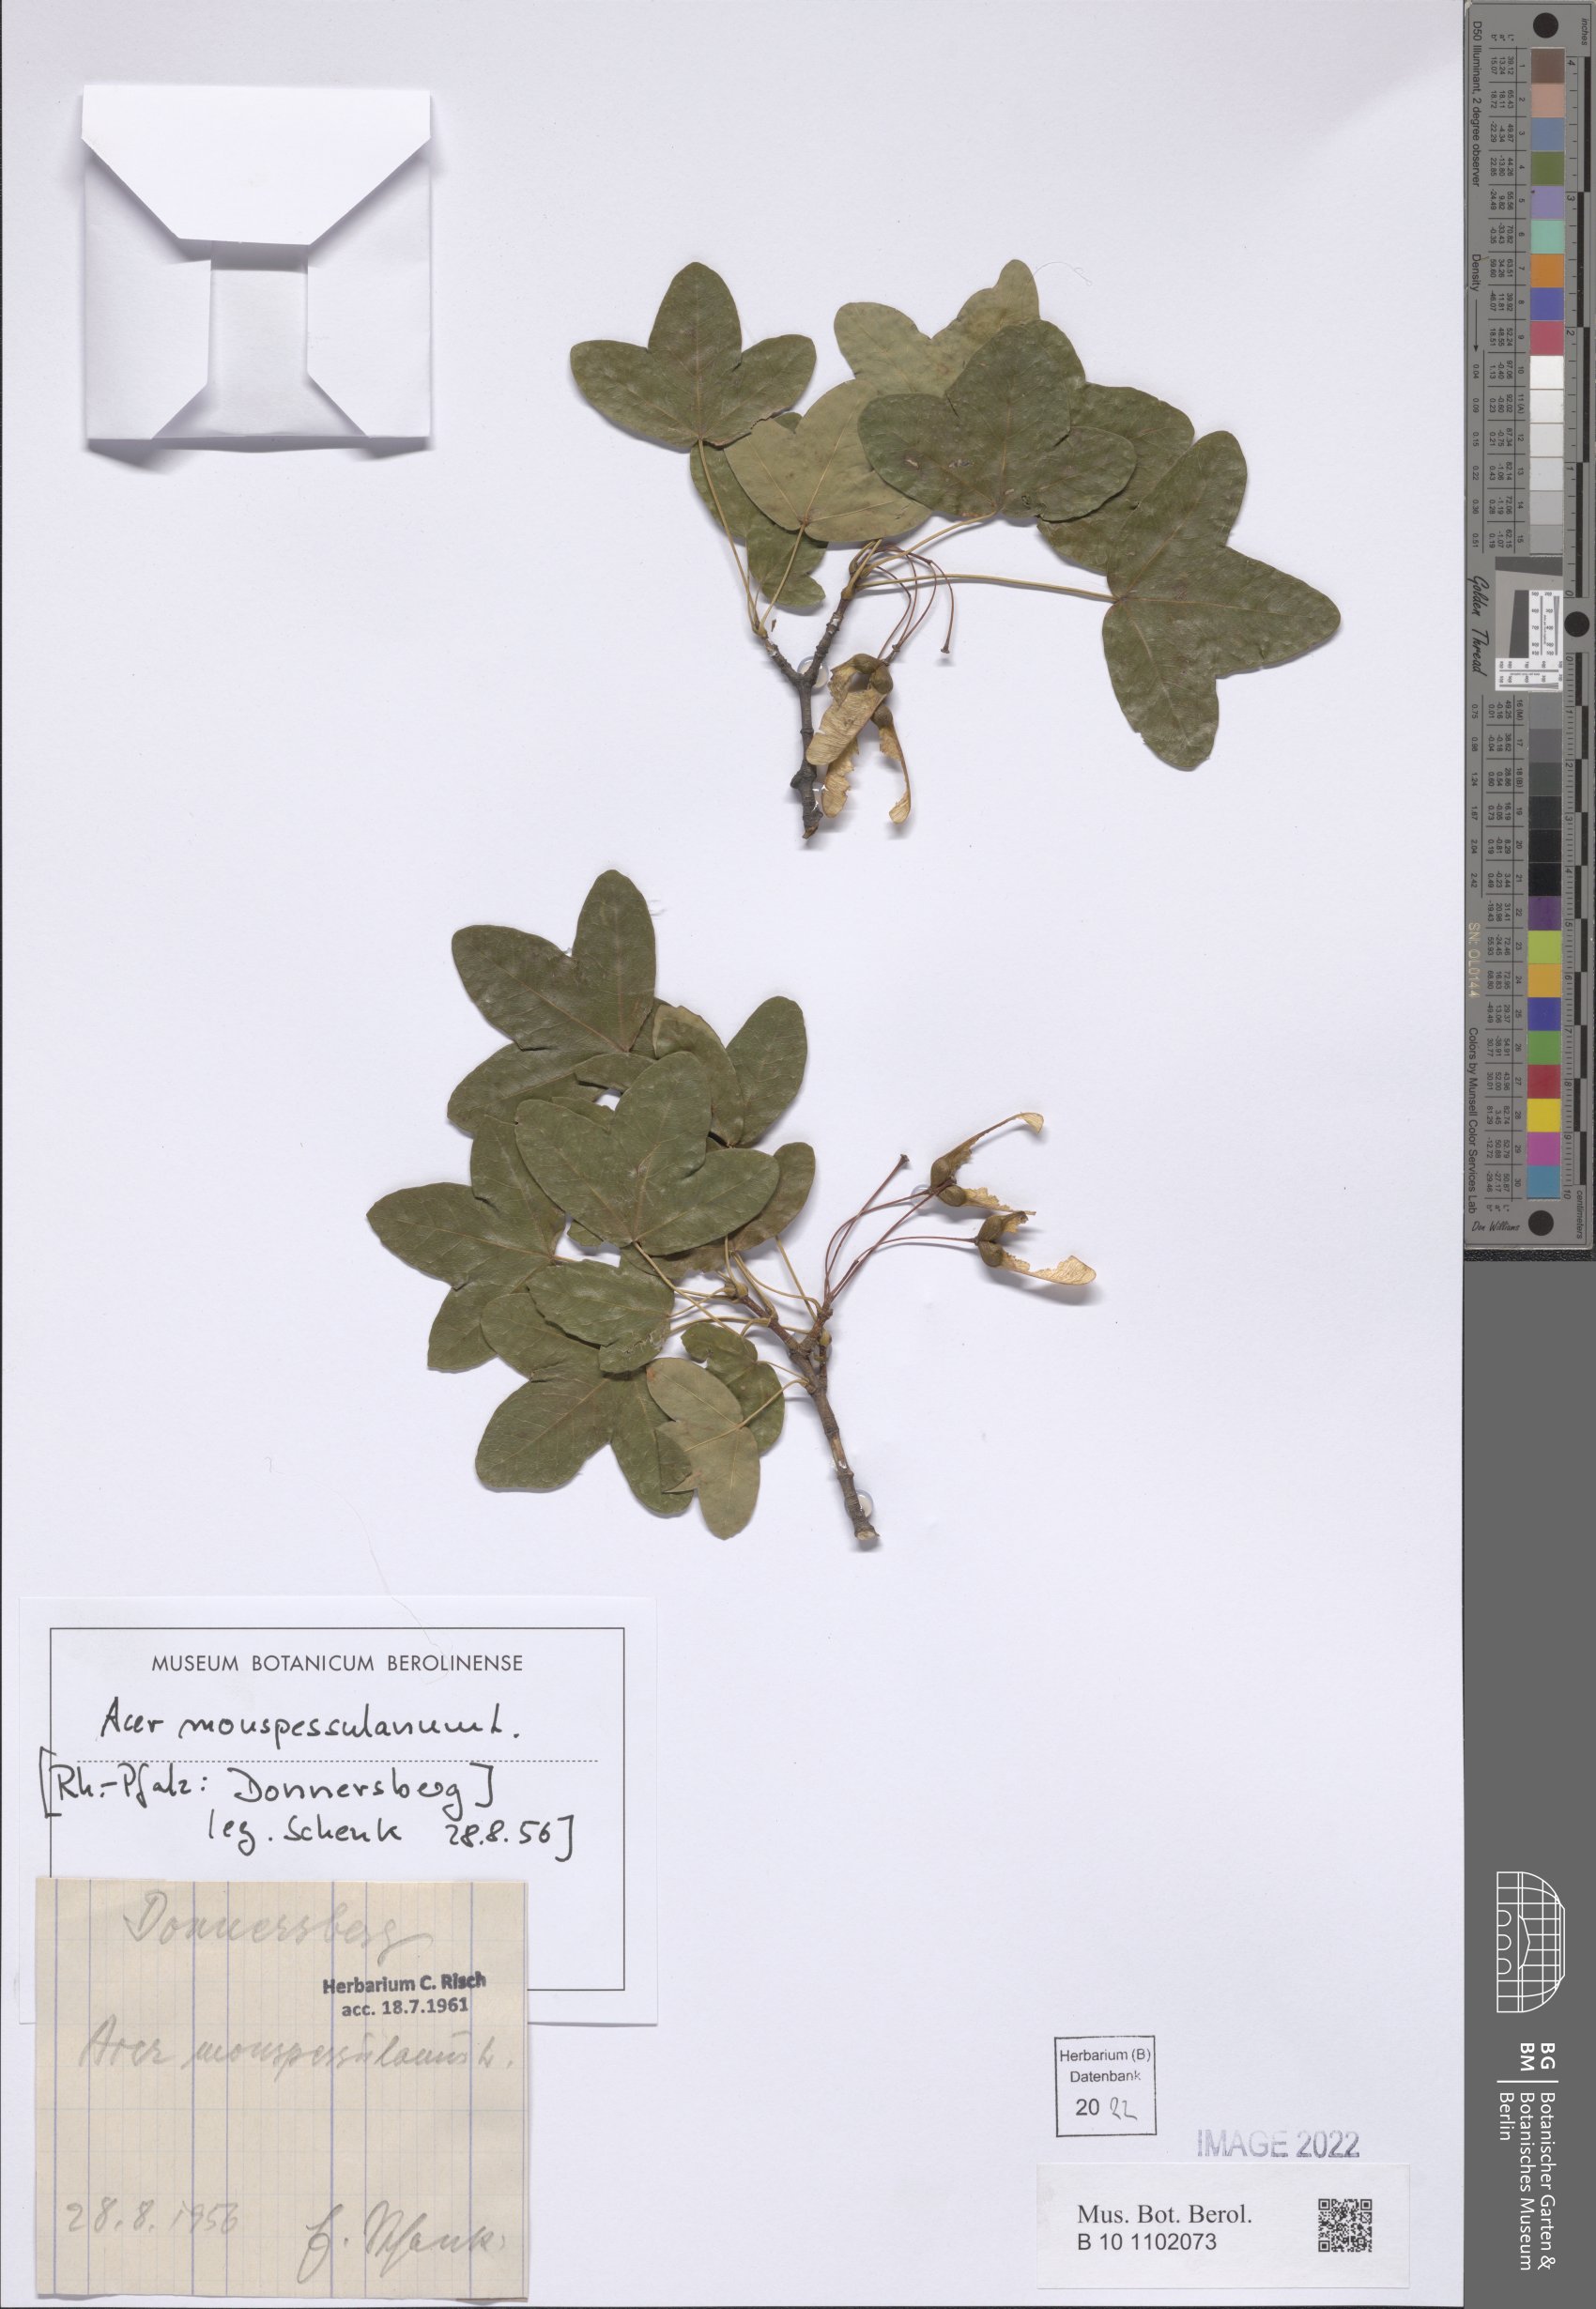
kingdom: Plantae
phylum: Tracheophyta
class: Magnoliopsida
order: Sapindales
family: Sapindaceae
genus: Acer
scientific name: Acer monspessulanum
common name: Montpellier maple
